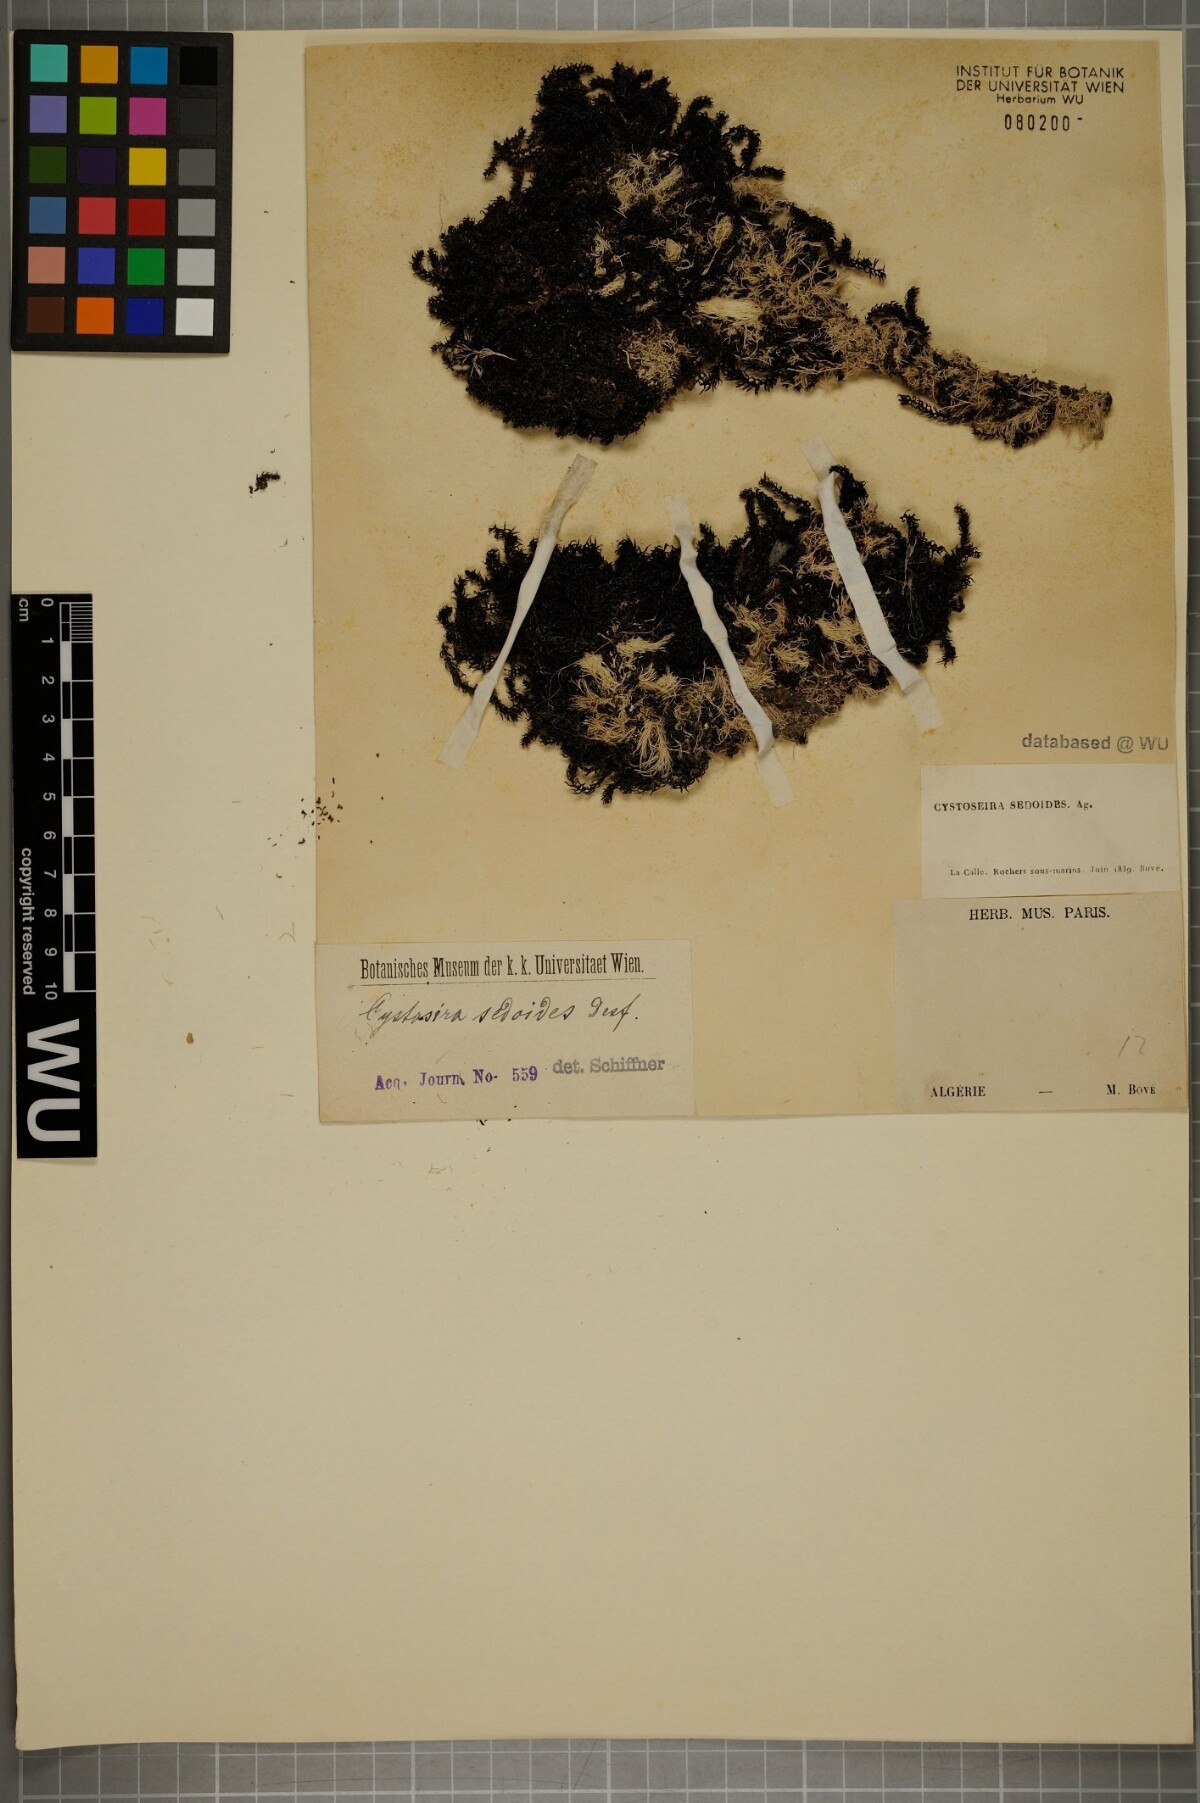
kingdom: Chromista
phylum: Ochrophyta
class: Phaeophyceae
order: Fucales
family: Sargassaceae
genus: Cystoseira
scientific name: Cystoseira sedoides
